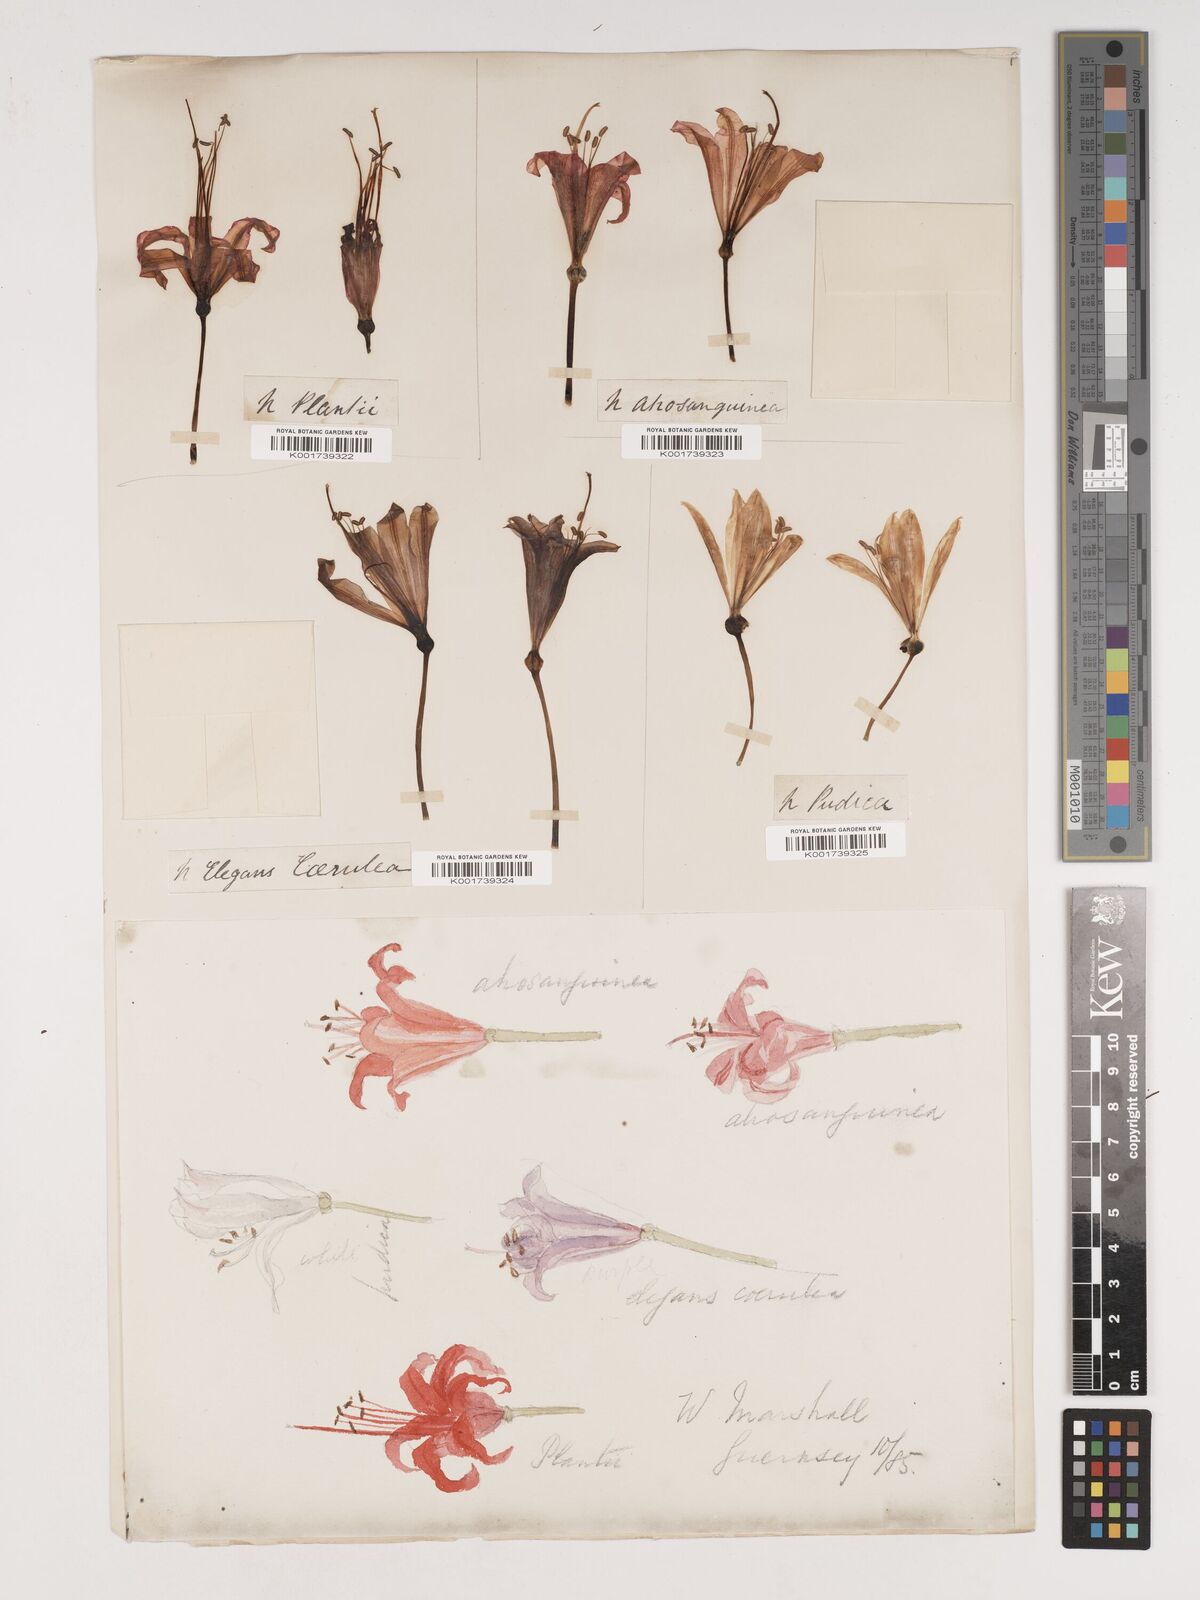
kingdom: Plantae
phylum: Tracheophyta
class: Liliopsida
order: Asparagales
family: Amaryllidaceae
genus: Nerine
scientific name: Nerine sarniensis
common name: Guernsey-lily
